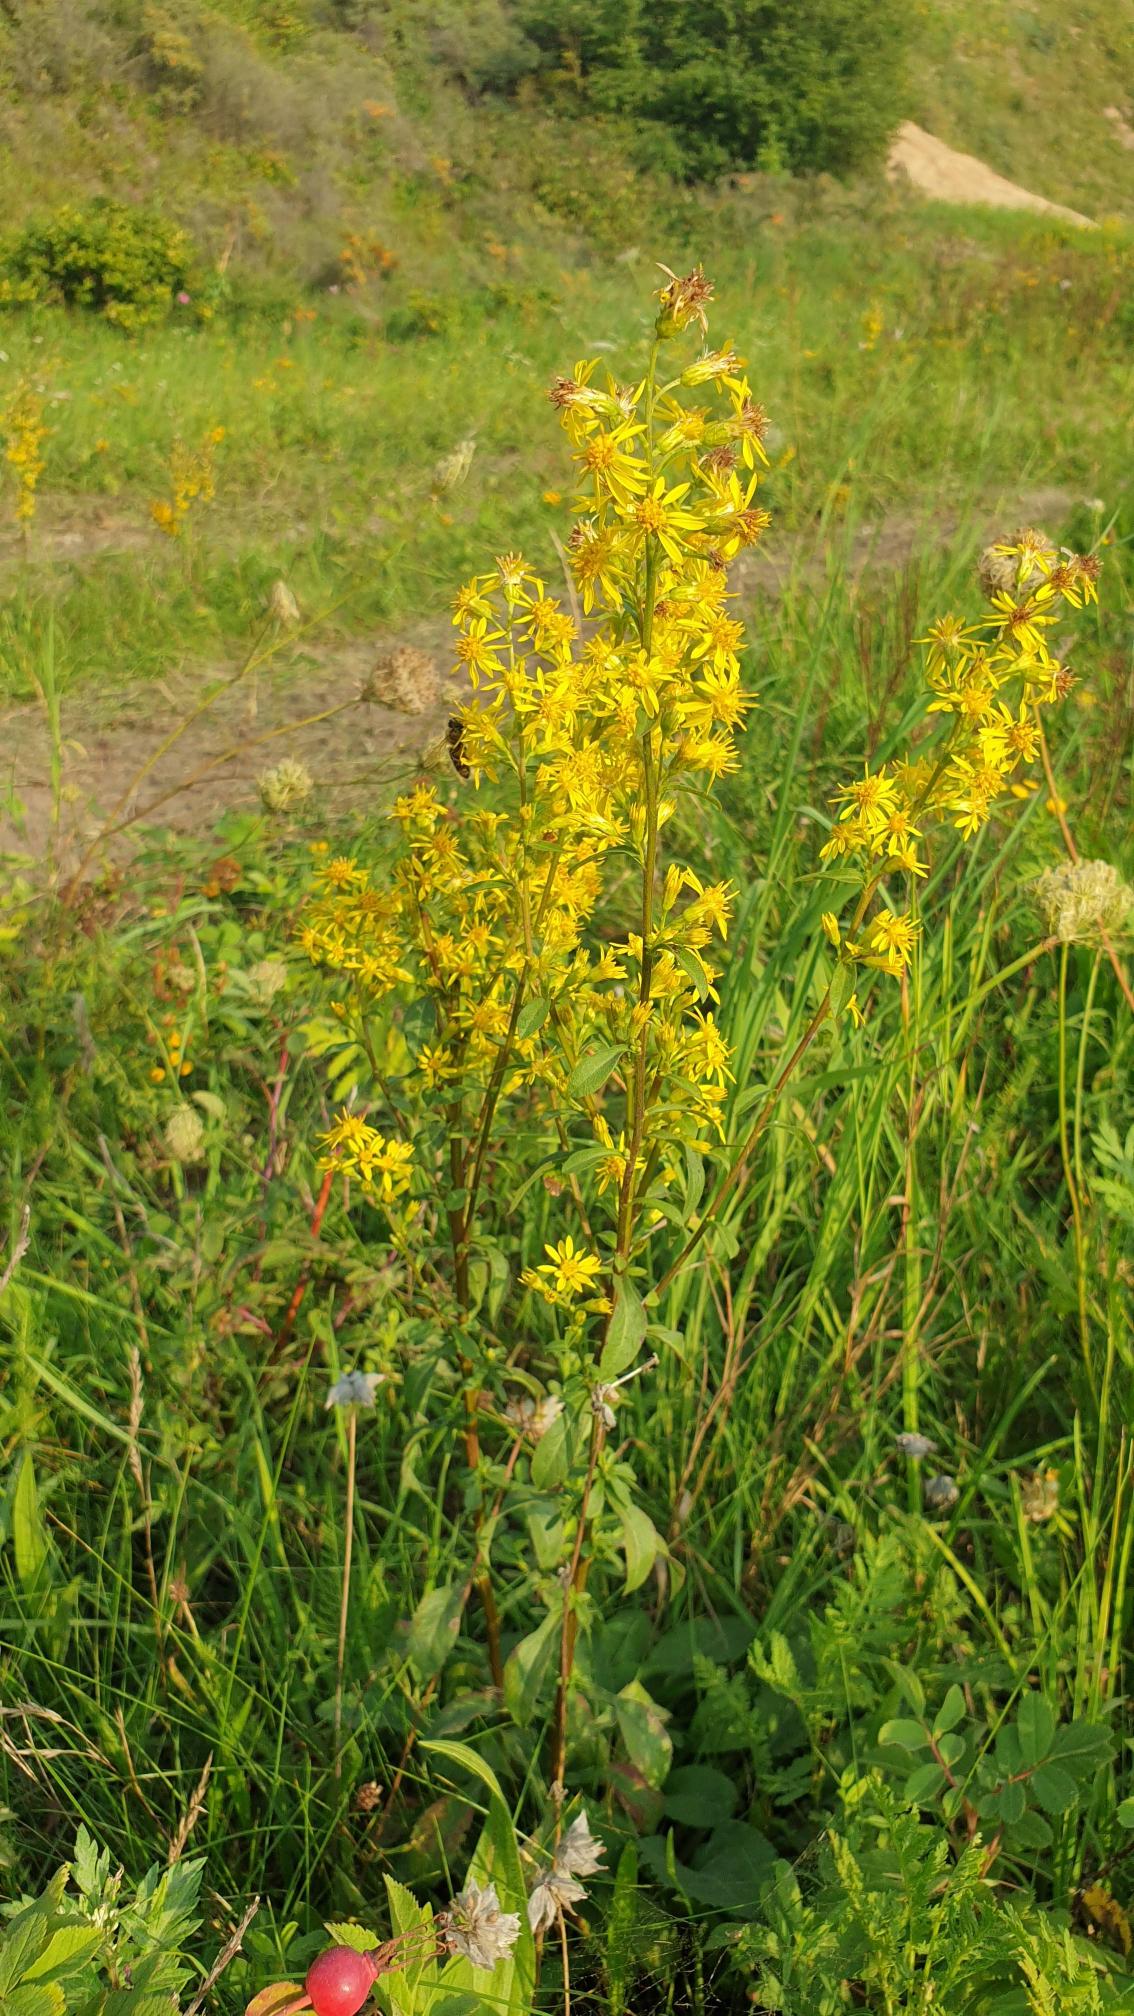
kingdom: Plantae
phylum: Tracheophyta
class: Magnoliopsida
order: Asterales
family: Asteraceae
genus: Solidago
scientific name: Solidago virgaurea
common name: Almindelig gyldenris
